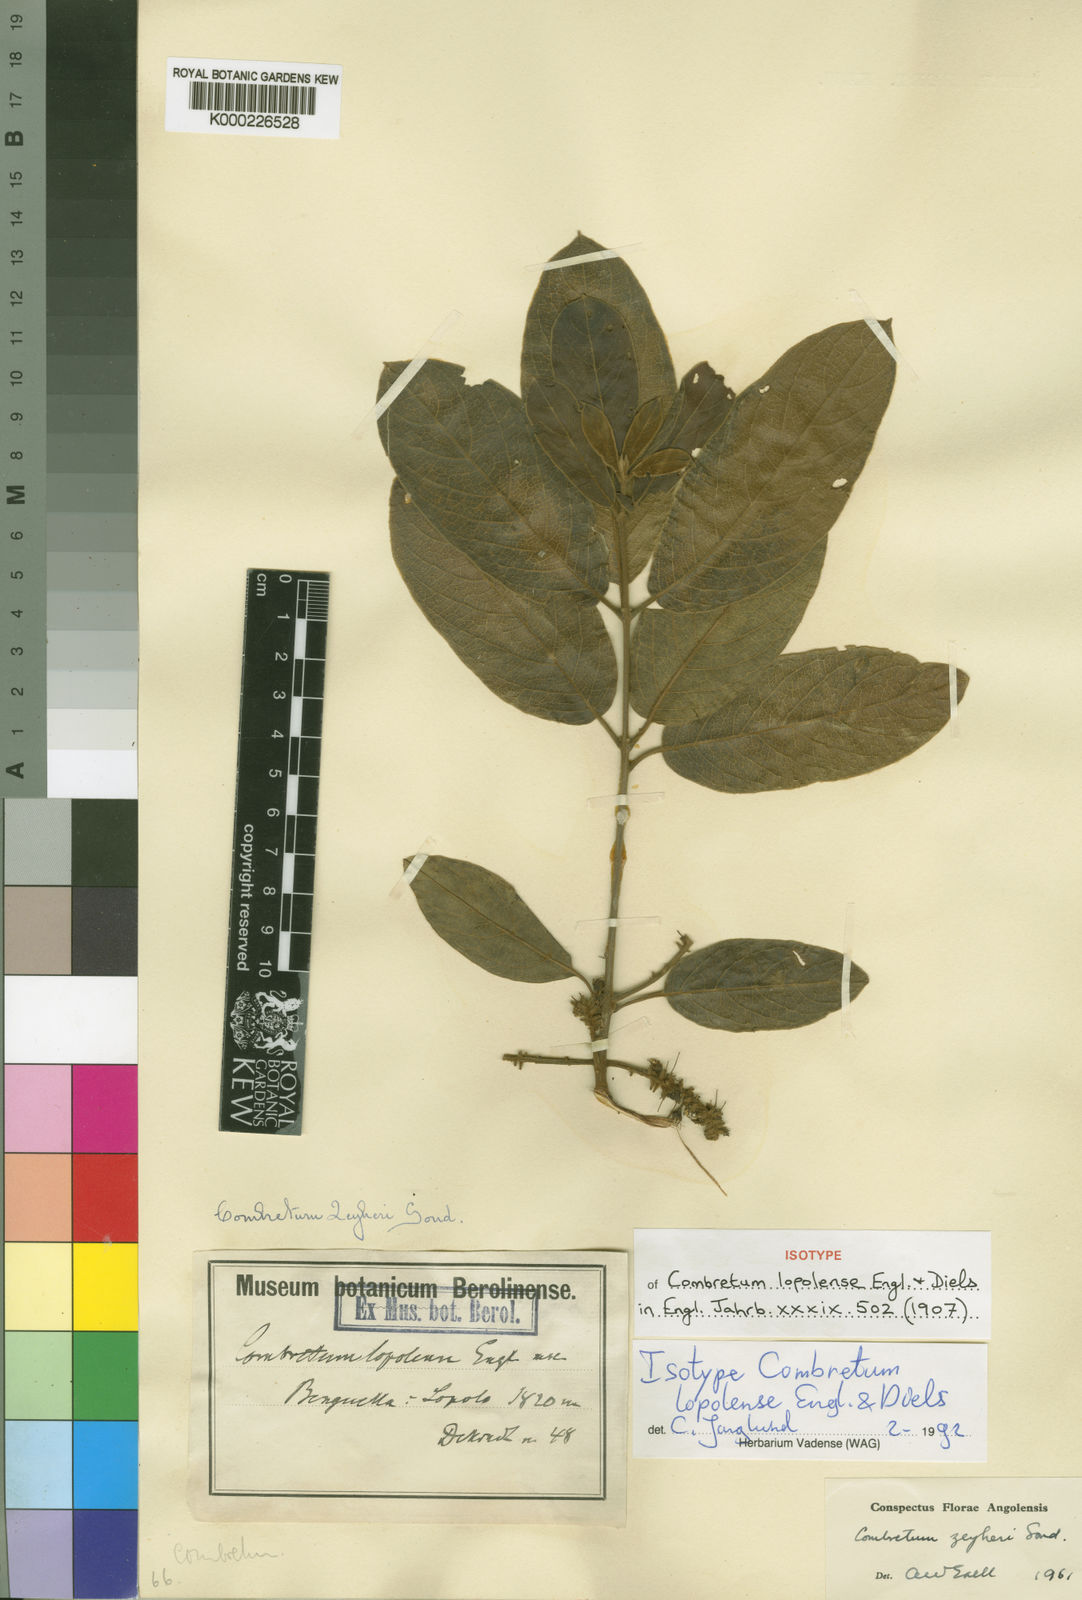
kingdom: Plantae
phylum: Tracheophyta
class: Magnoliopsida
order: Myrtales
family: Combretaceae
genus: Combretum
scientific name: Combretum zeyheri
